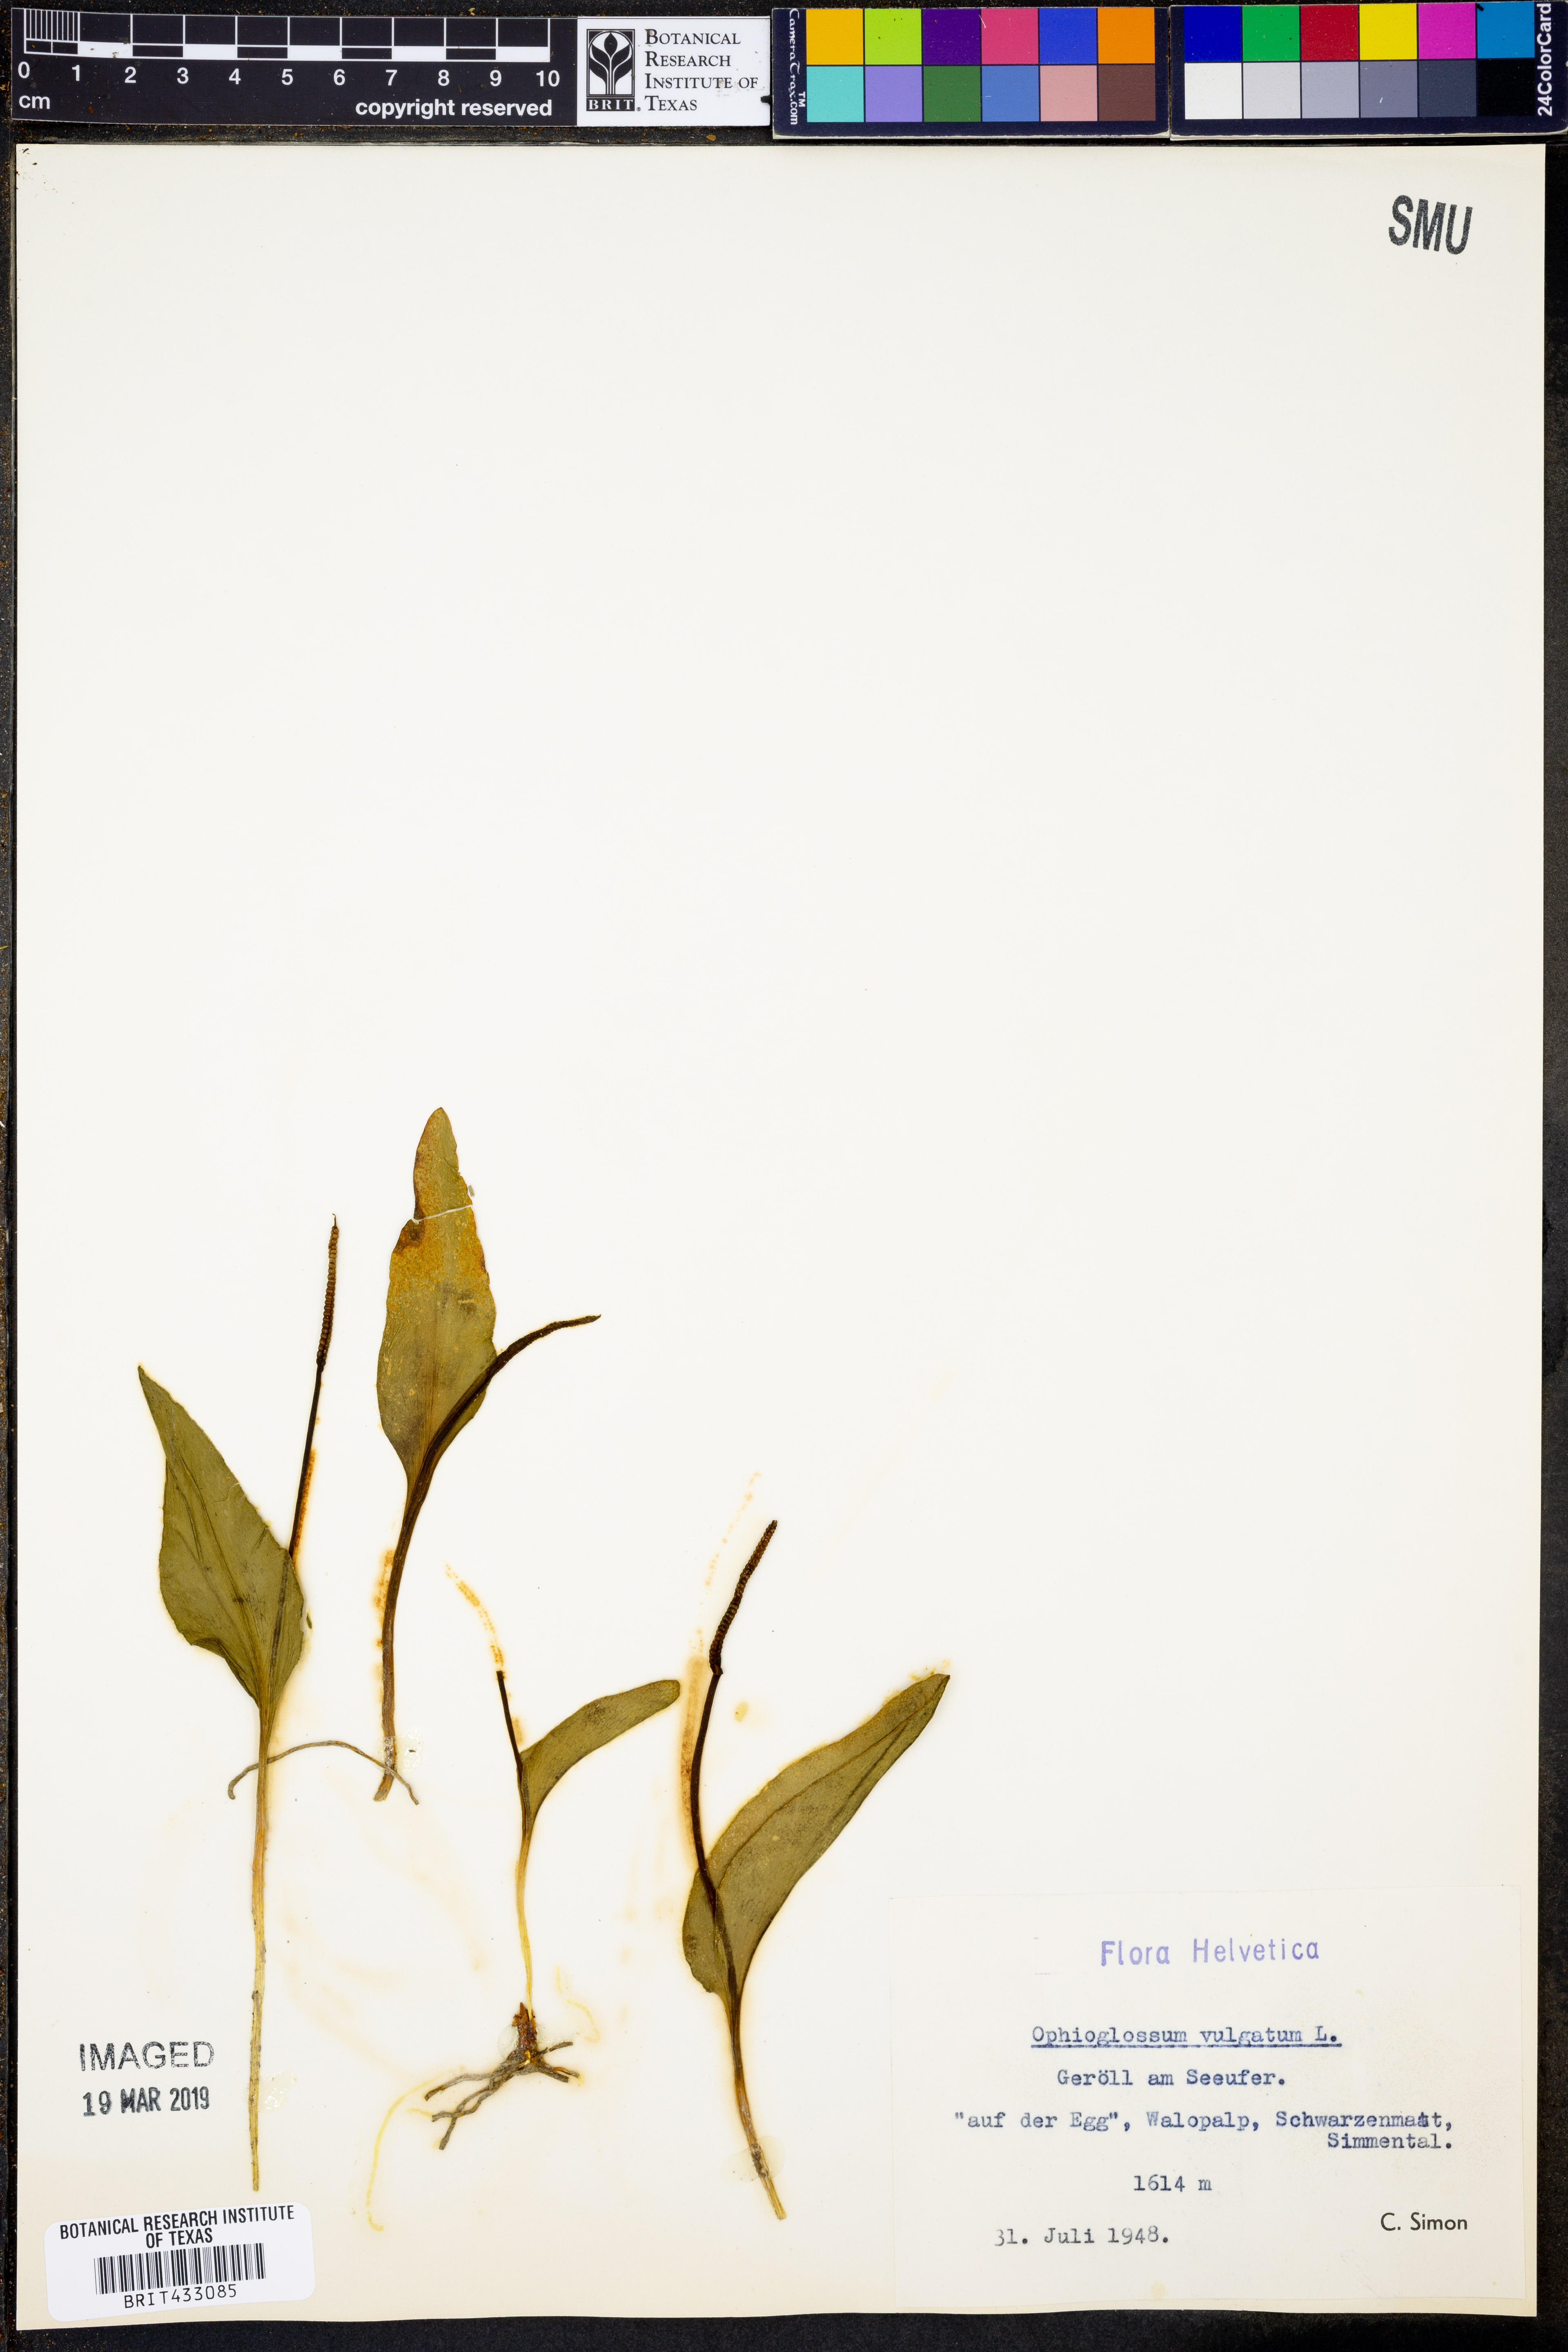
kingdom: Plantae
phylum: Tracheophyta
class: Polypodiopsida
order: Ophioglossales
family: Ophioglossaceae
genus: Ophioglossum
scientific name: Ophioglossum vulgatum
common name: Adder's-tongue
